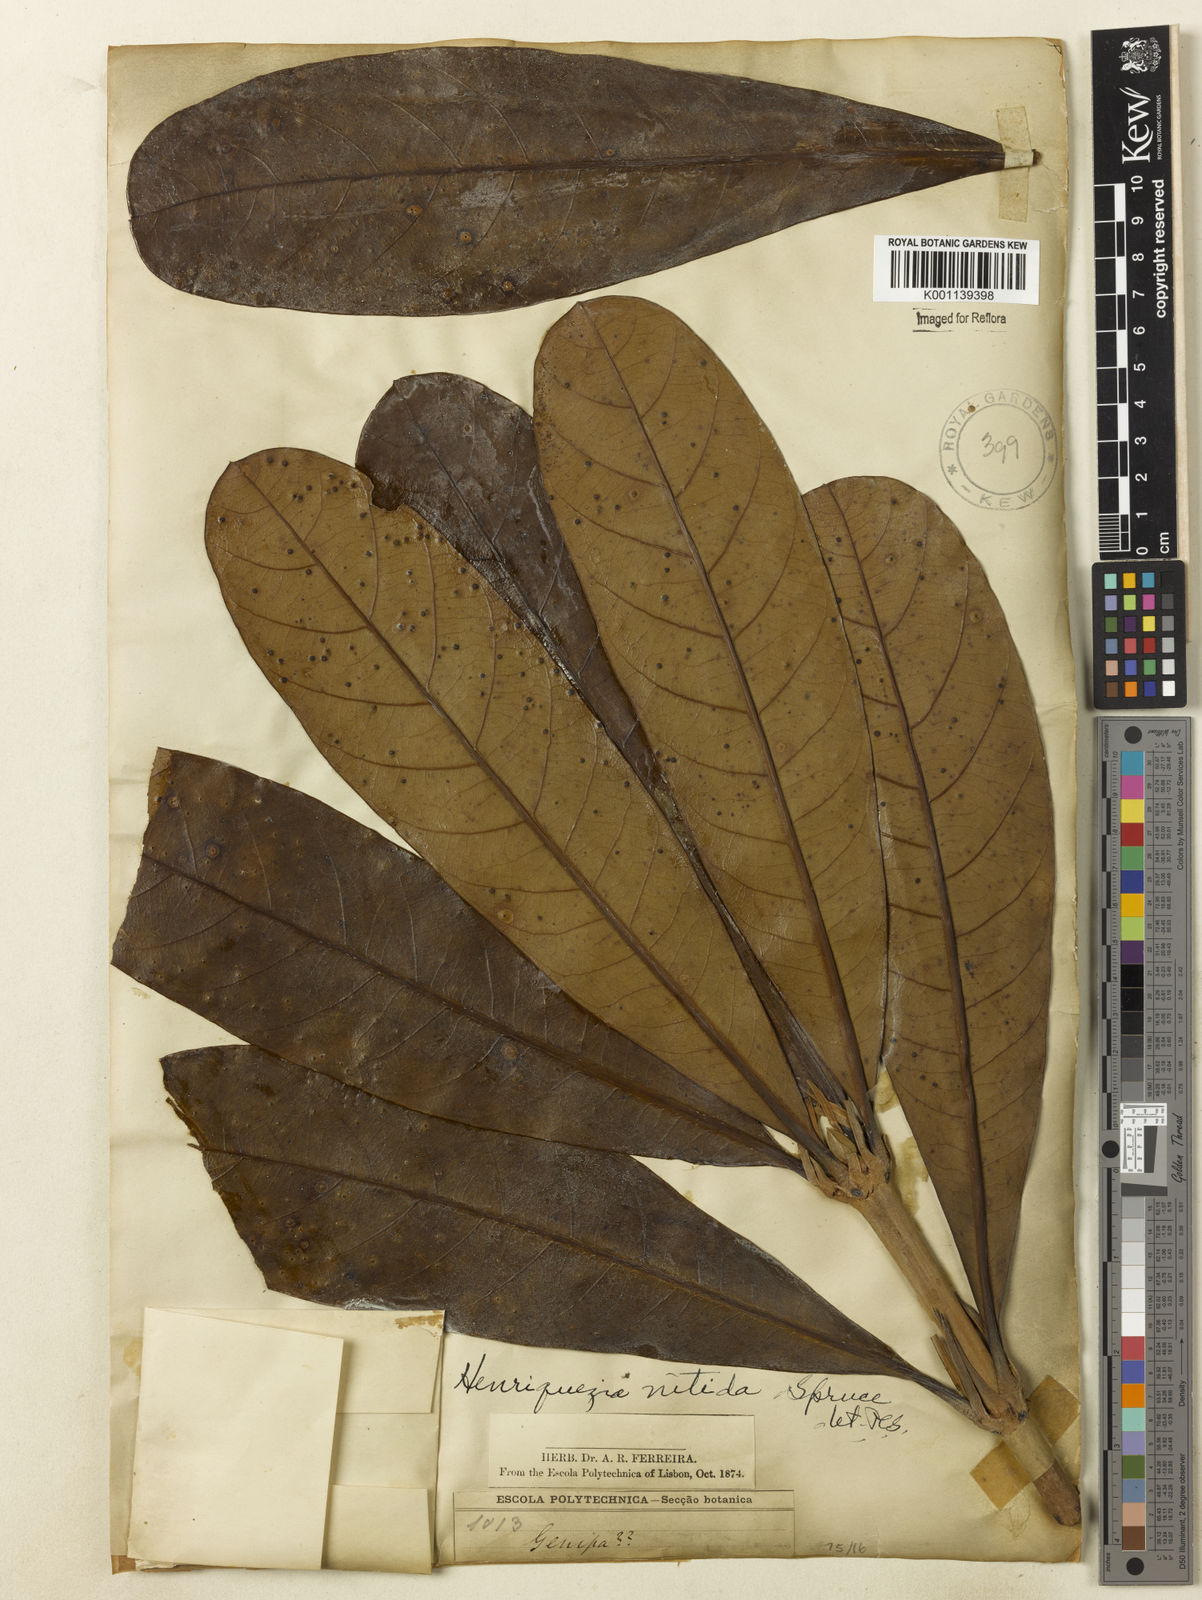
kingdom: Plantae
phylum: Tracheophyta
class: Magnoliopsida
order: Gentianales
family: Rubiaceae
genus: Henriquezia
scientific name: Henriquezia nitida
